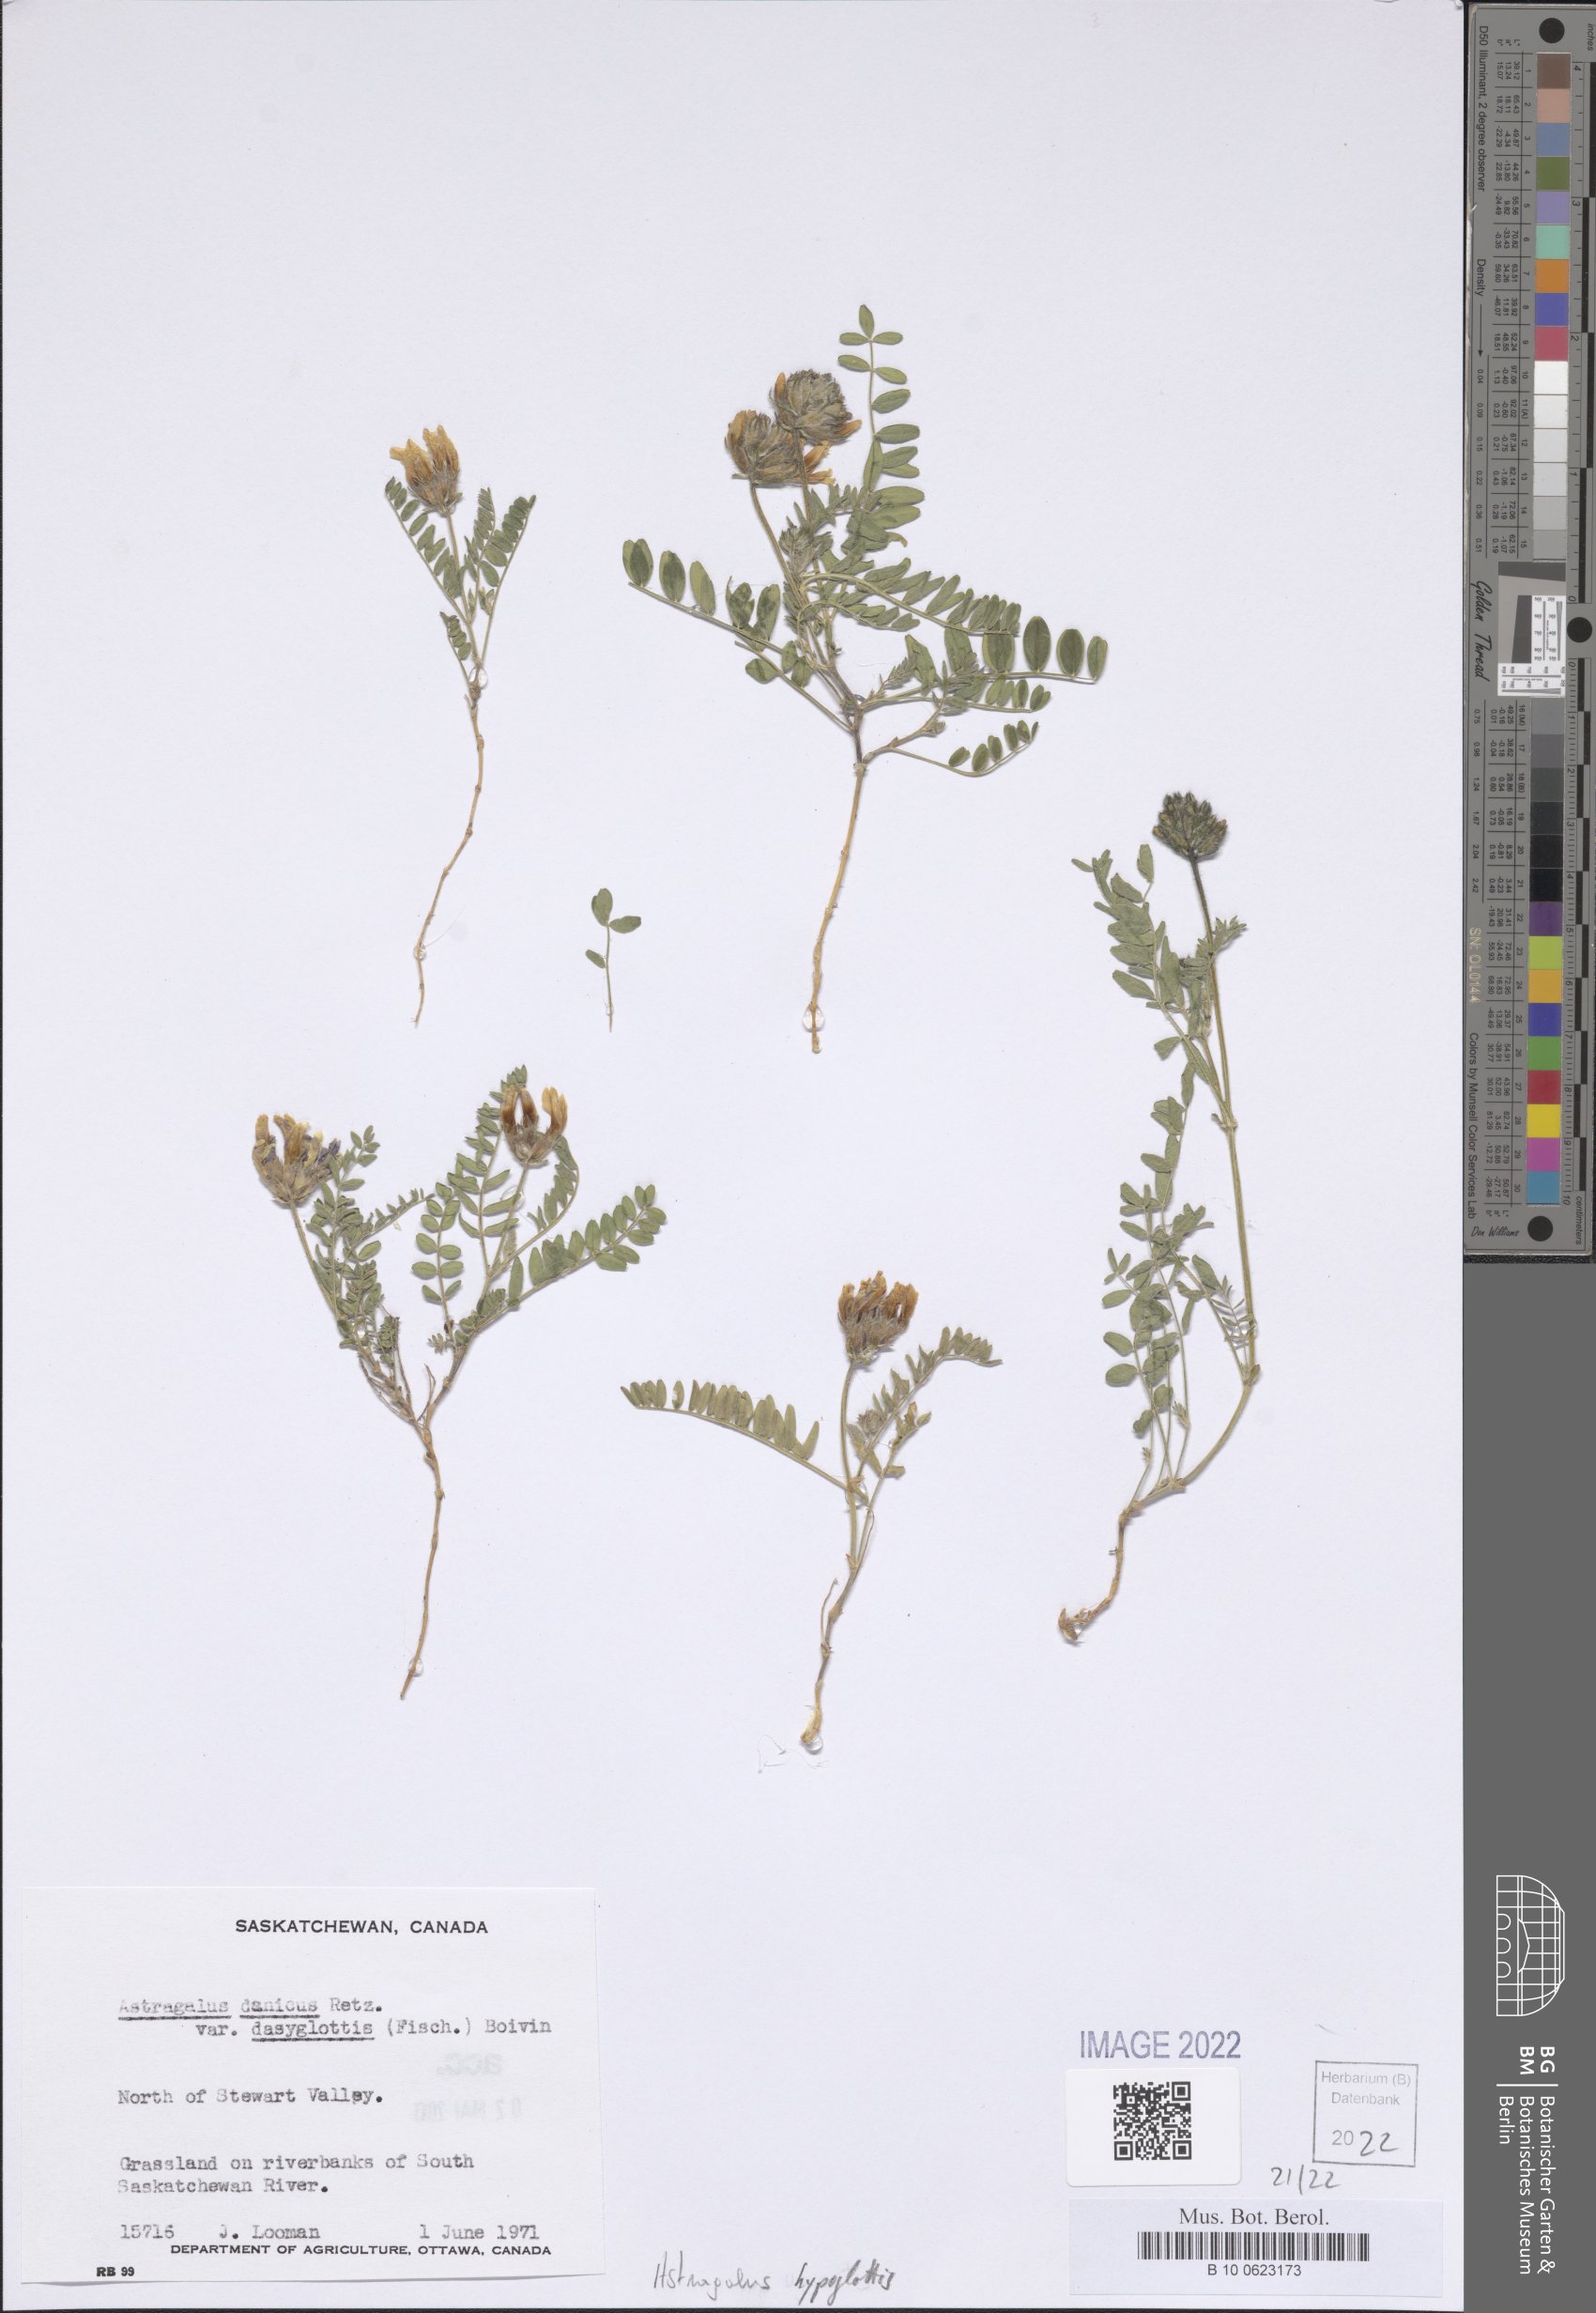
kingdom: Plantae
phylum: Tracheophyta
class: Magnoliopsida
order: Fabales
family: Fabaceae
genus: Astragalus
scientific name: Astragalus hypoglottis
